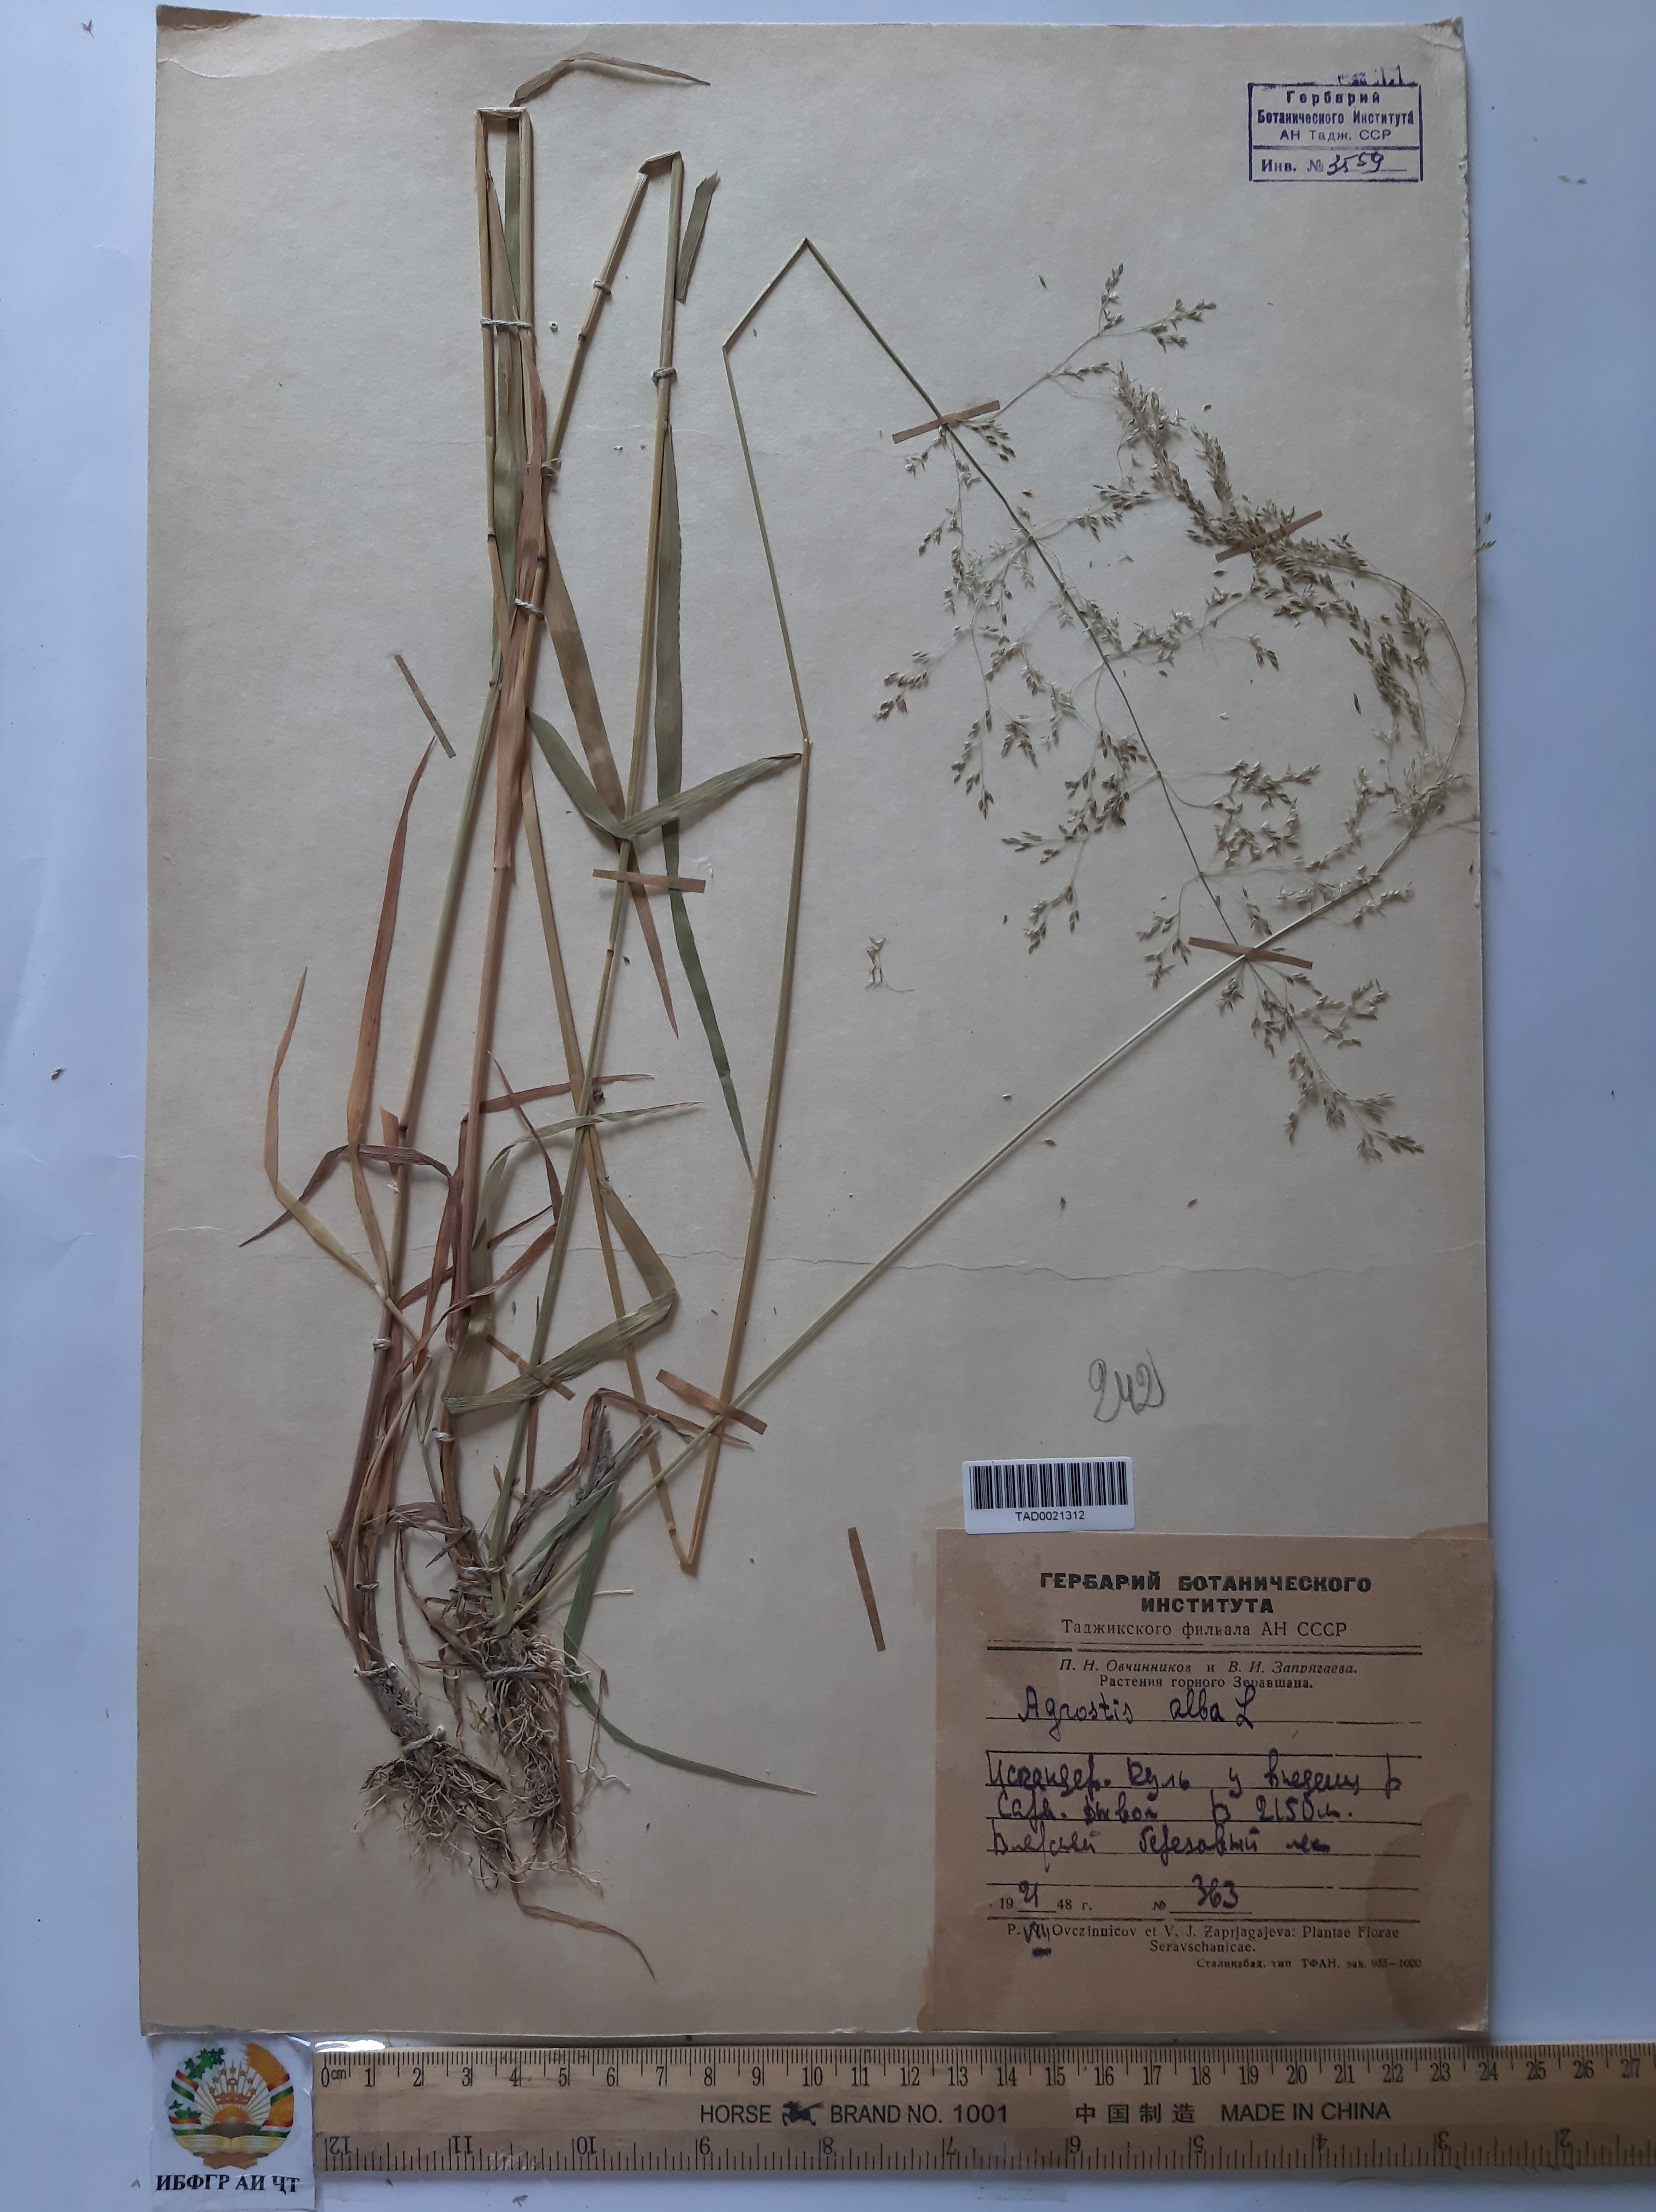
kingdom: Plantae
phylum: Tracheophyta
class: Liliopsida
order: Poales
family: Poaceae
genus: Poa
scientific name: Poa nemoralis
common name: Wood bluegrass
